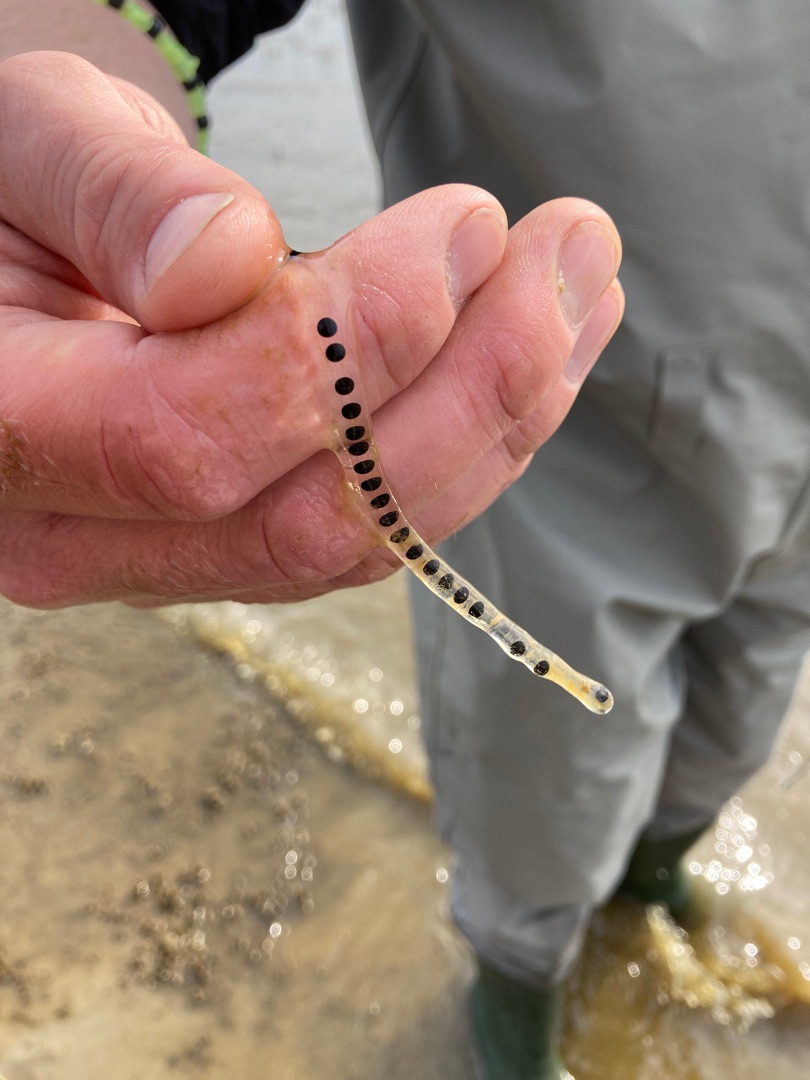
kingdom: Animalia
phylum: Chordata
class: Amphibia
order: Anura
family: Bufonidae
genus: Bufo
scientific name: Bufo bufo
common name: Skrubtudse
